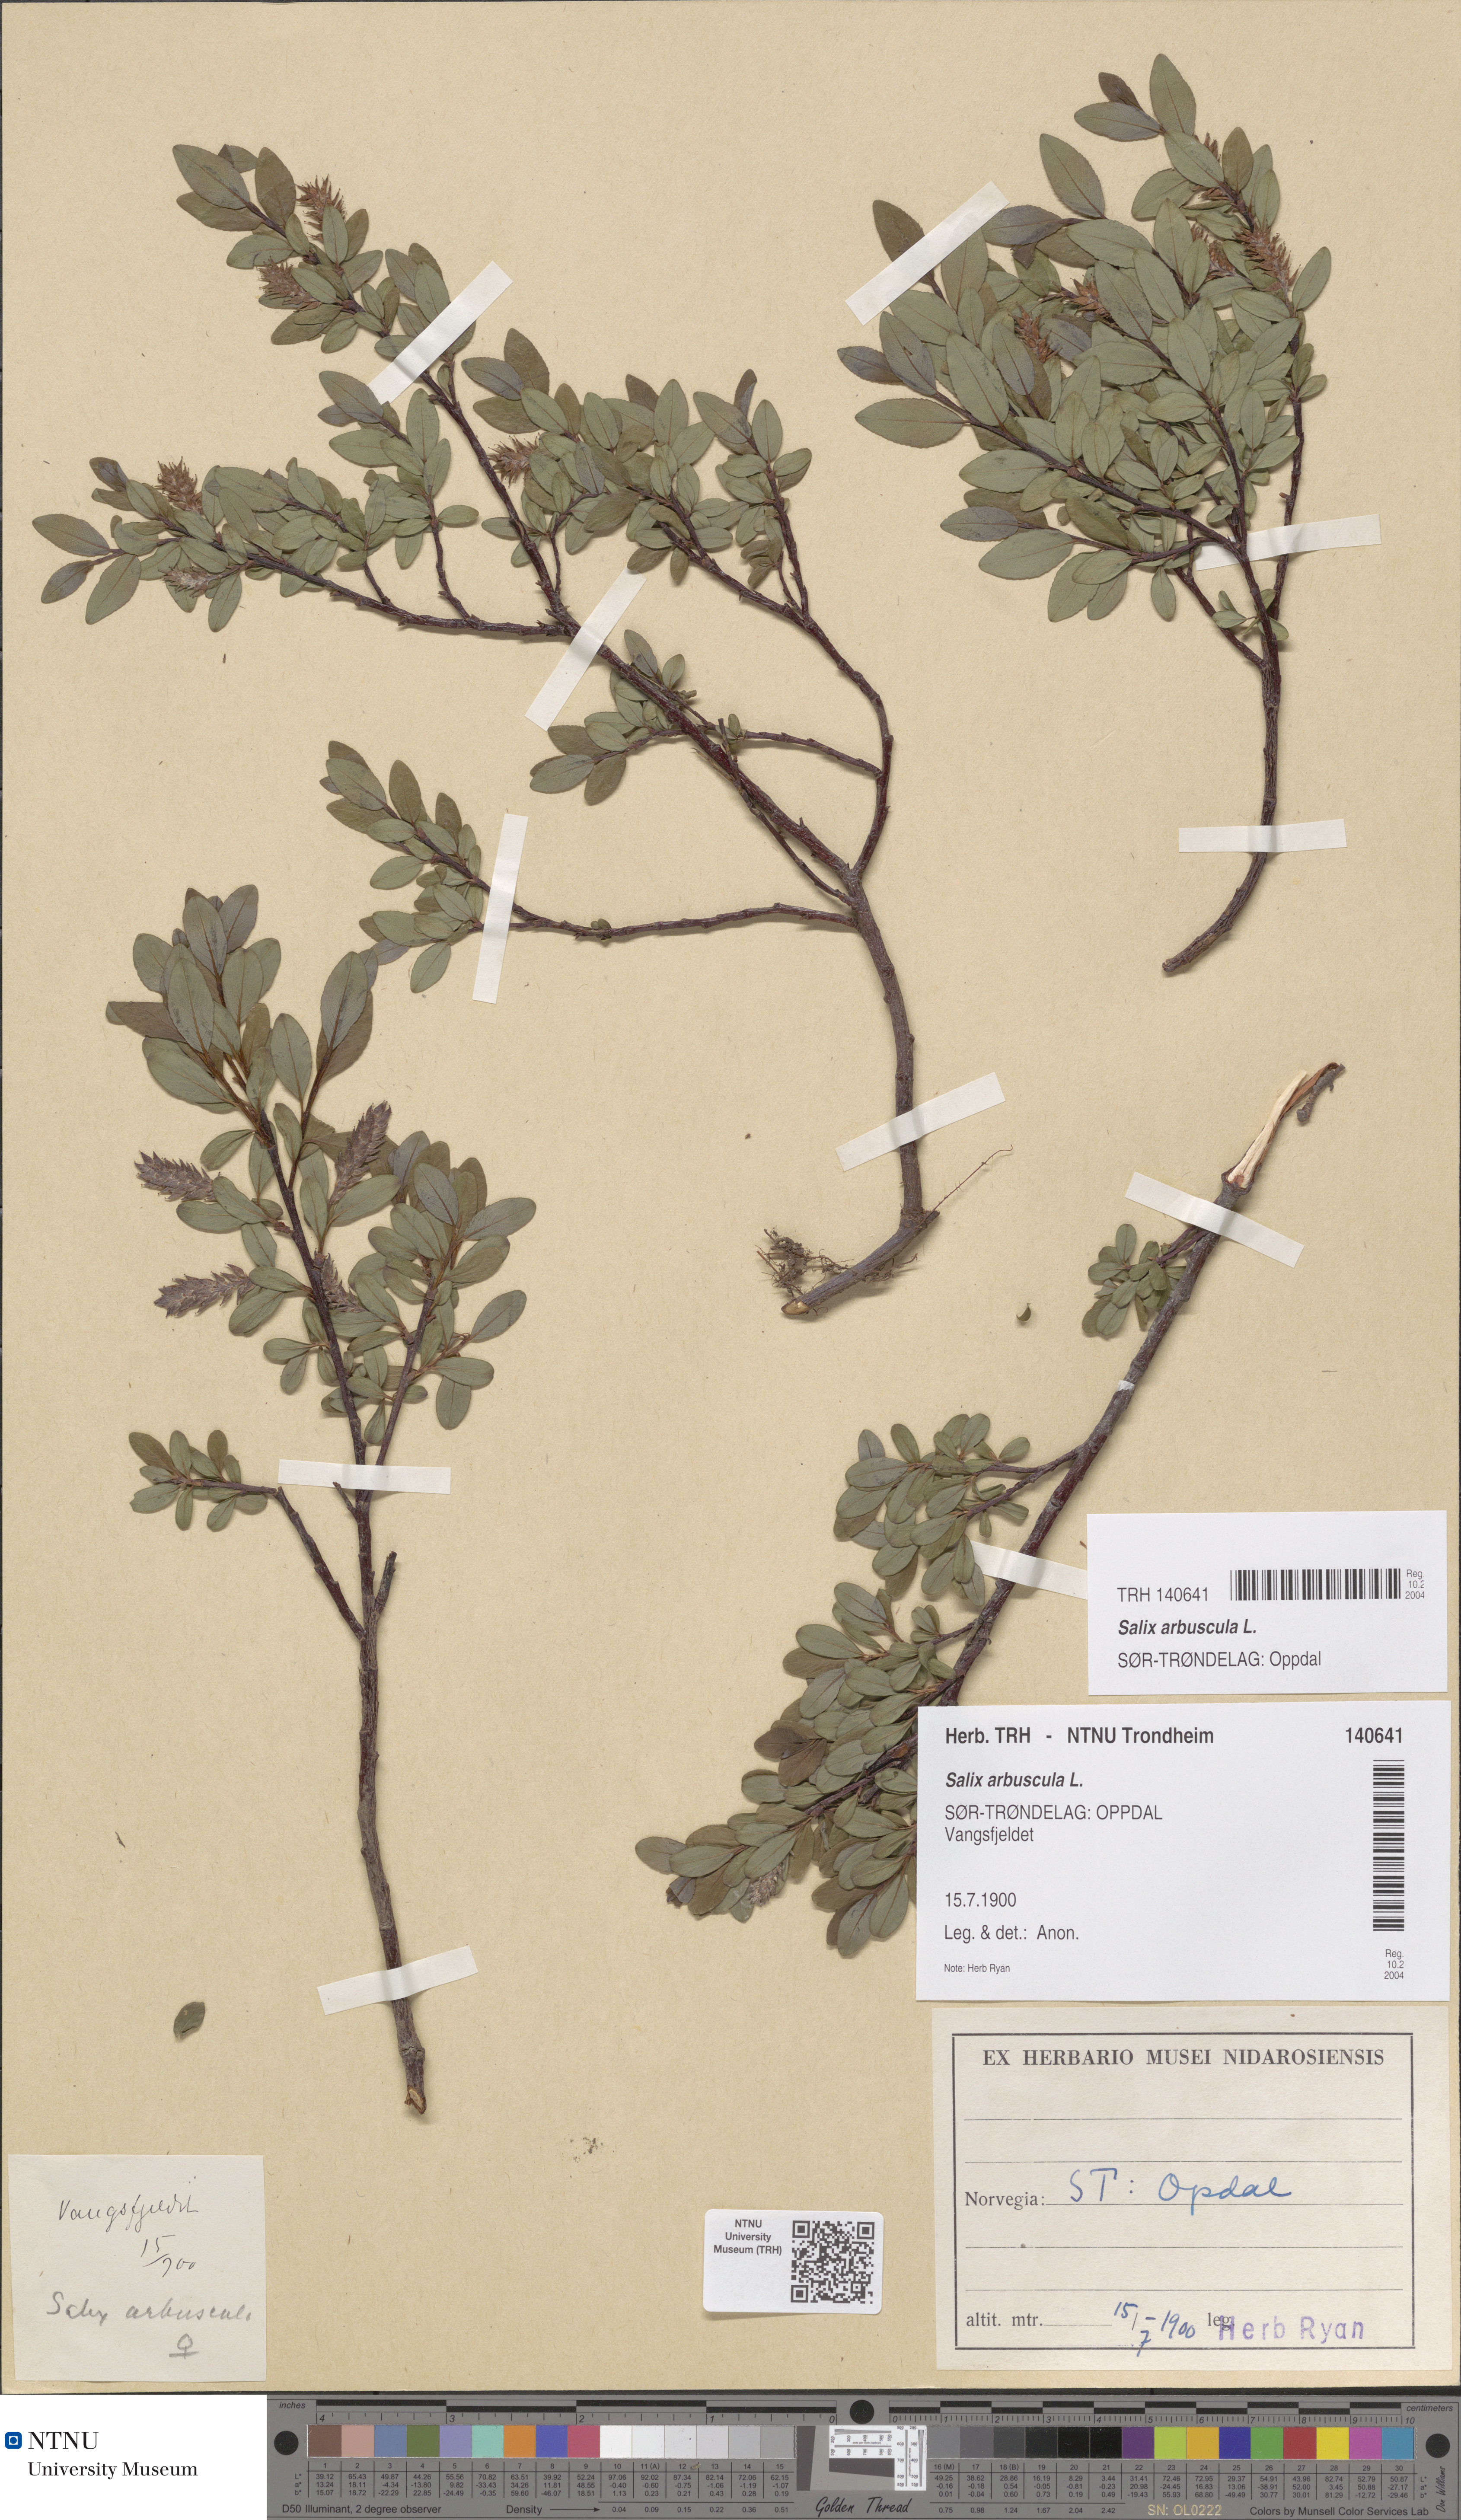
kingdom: Plantae
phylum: Tracheophyta
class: Magnoliopsida
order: Malpighiales
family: Salicaceae
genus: Salix
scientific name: Salix arbuscula
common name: Mountain willow
